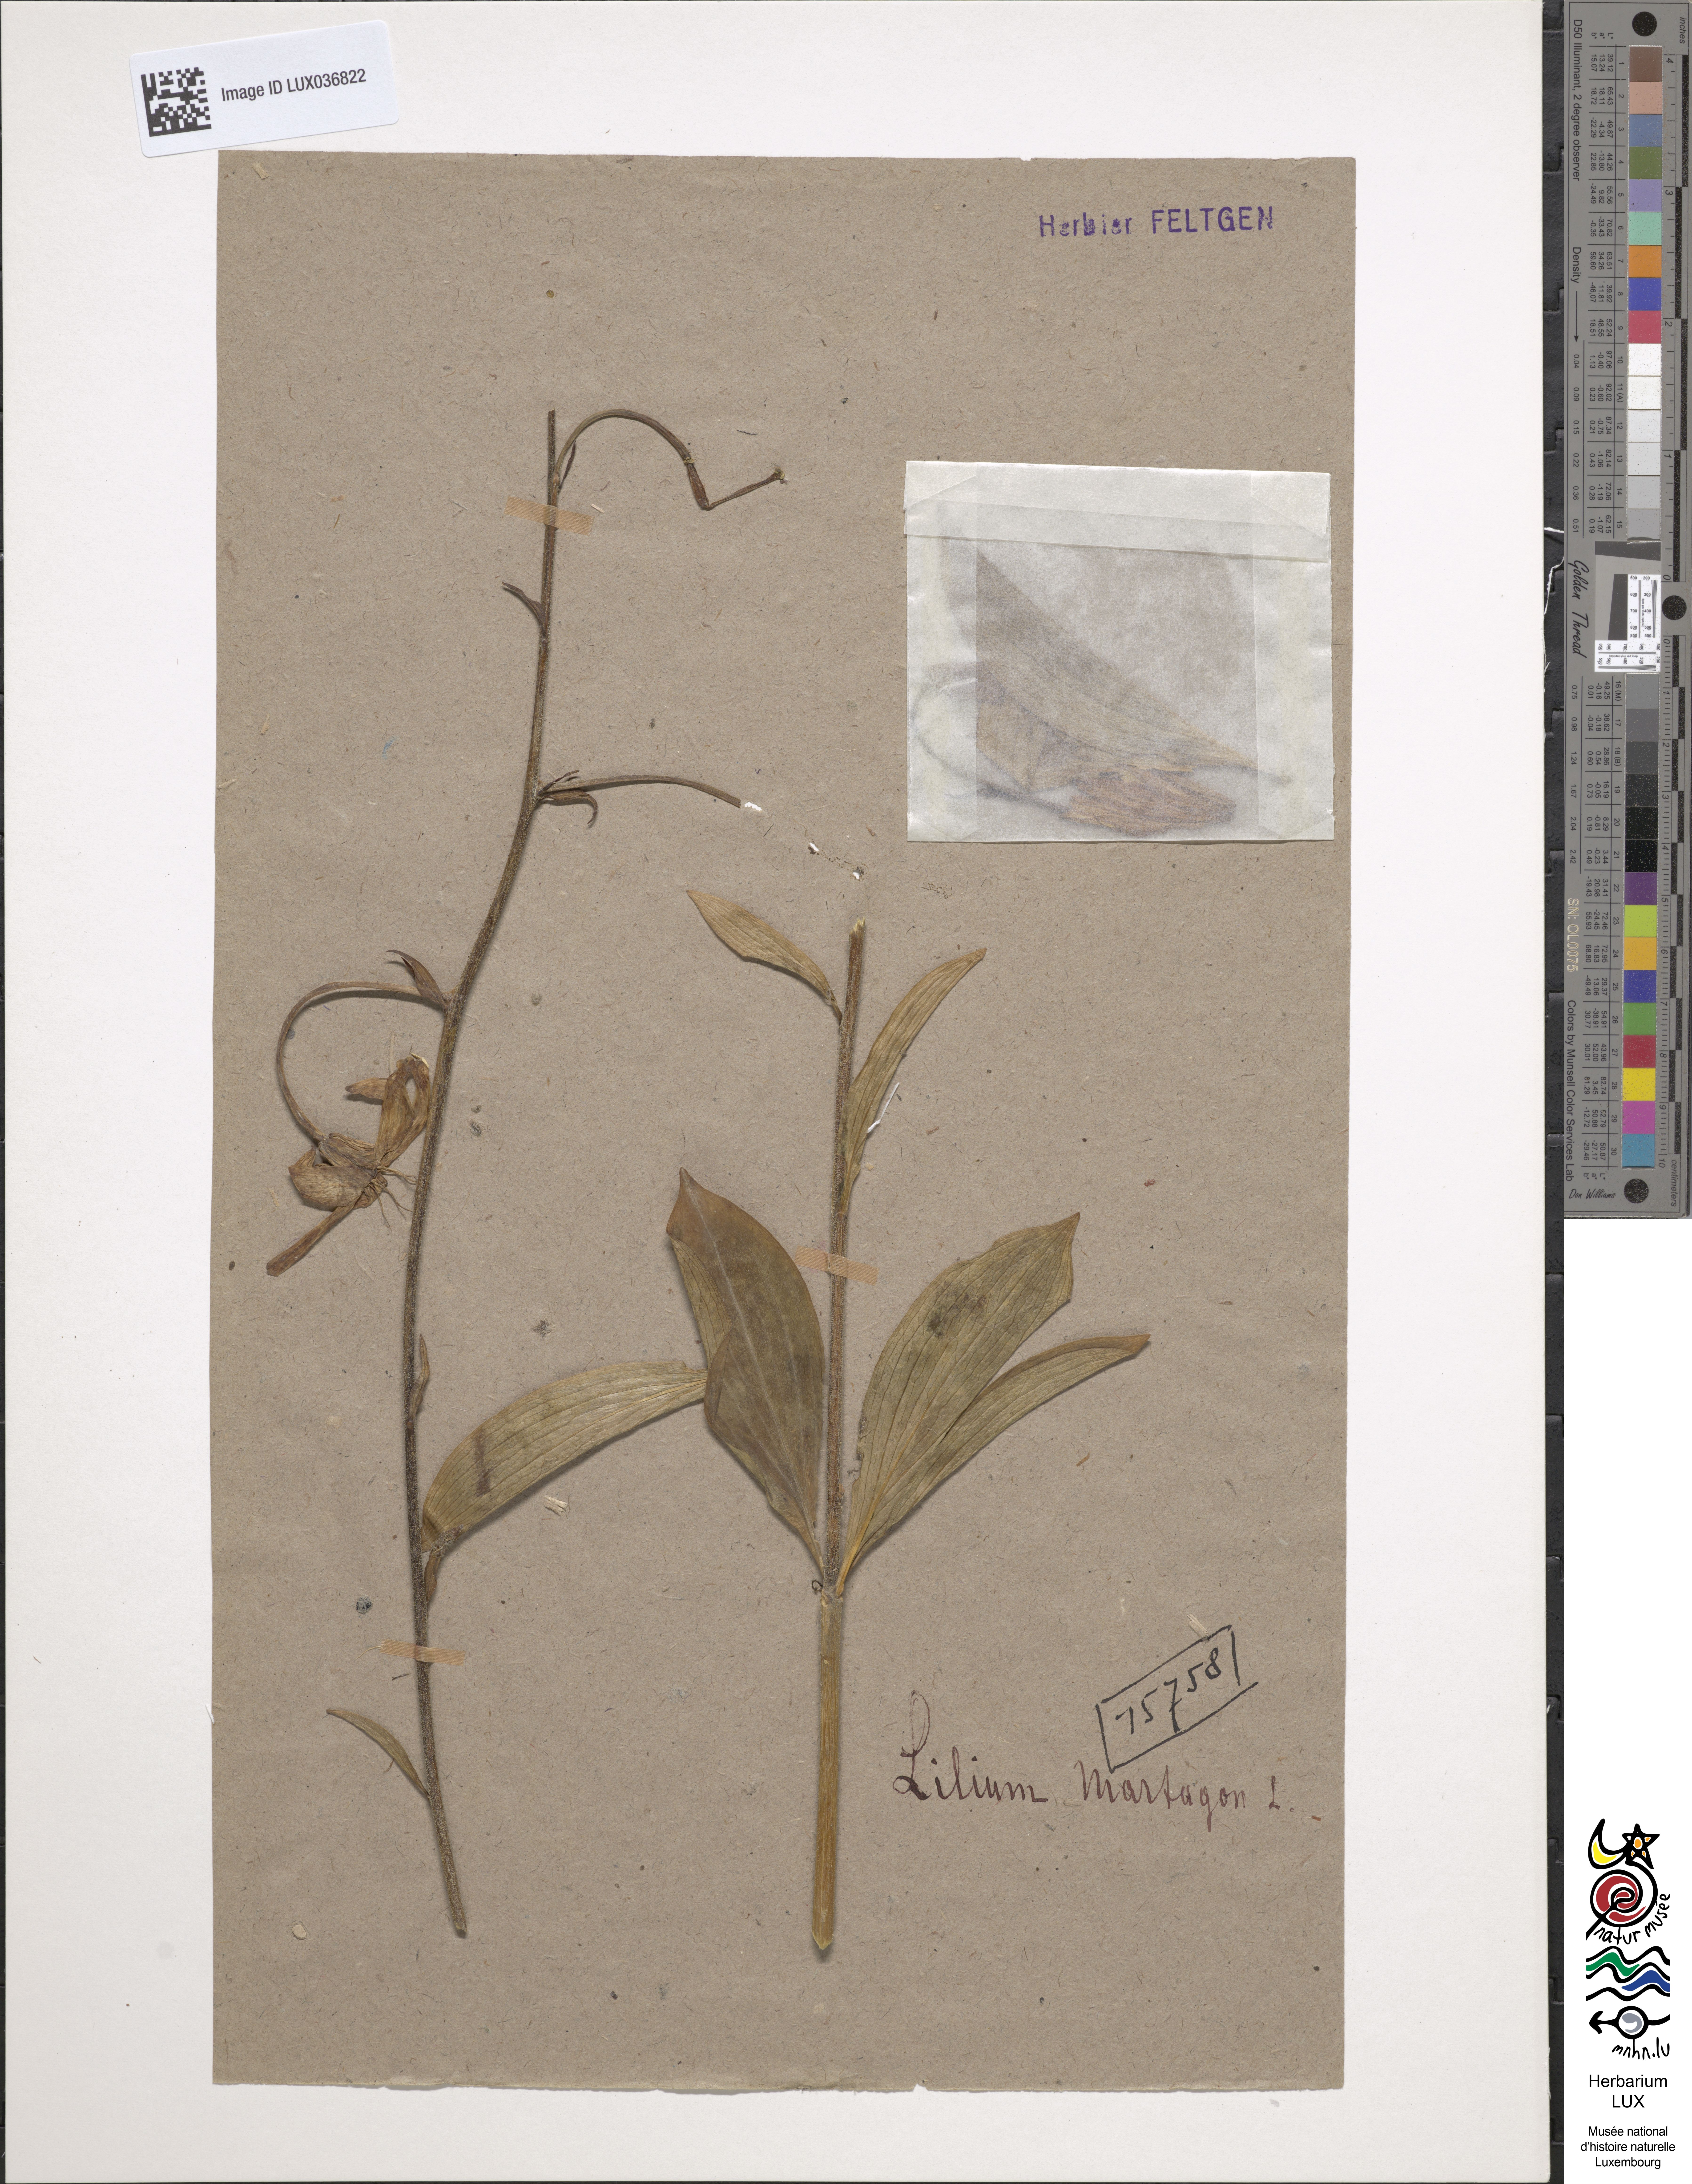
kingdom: Plantae
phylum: Tracheophyta
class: Liliopsida
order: Liliales
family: Liliaceae
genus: Lilium
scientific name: Lilium martagon
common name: Martagon lily
